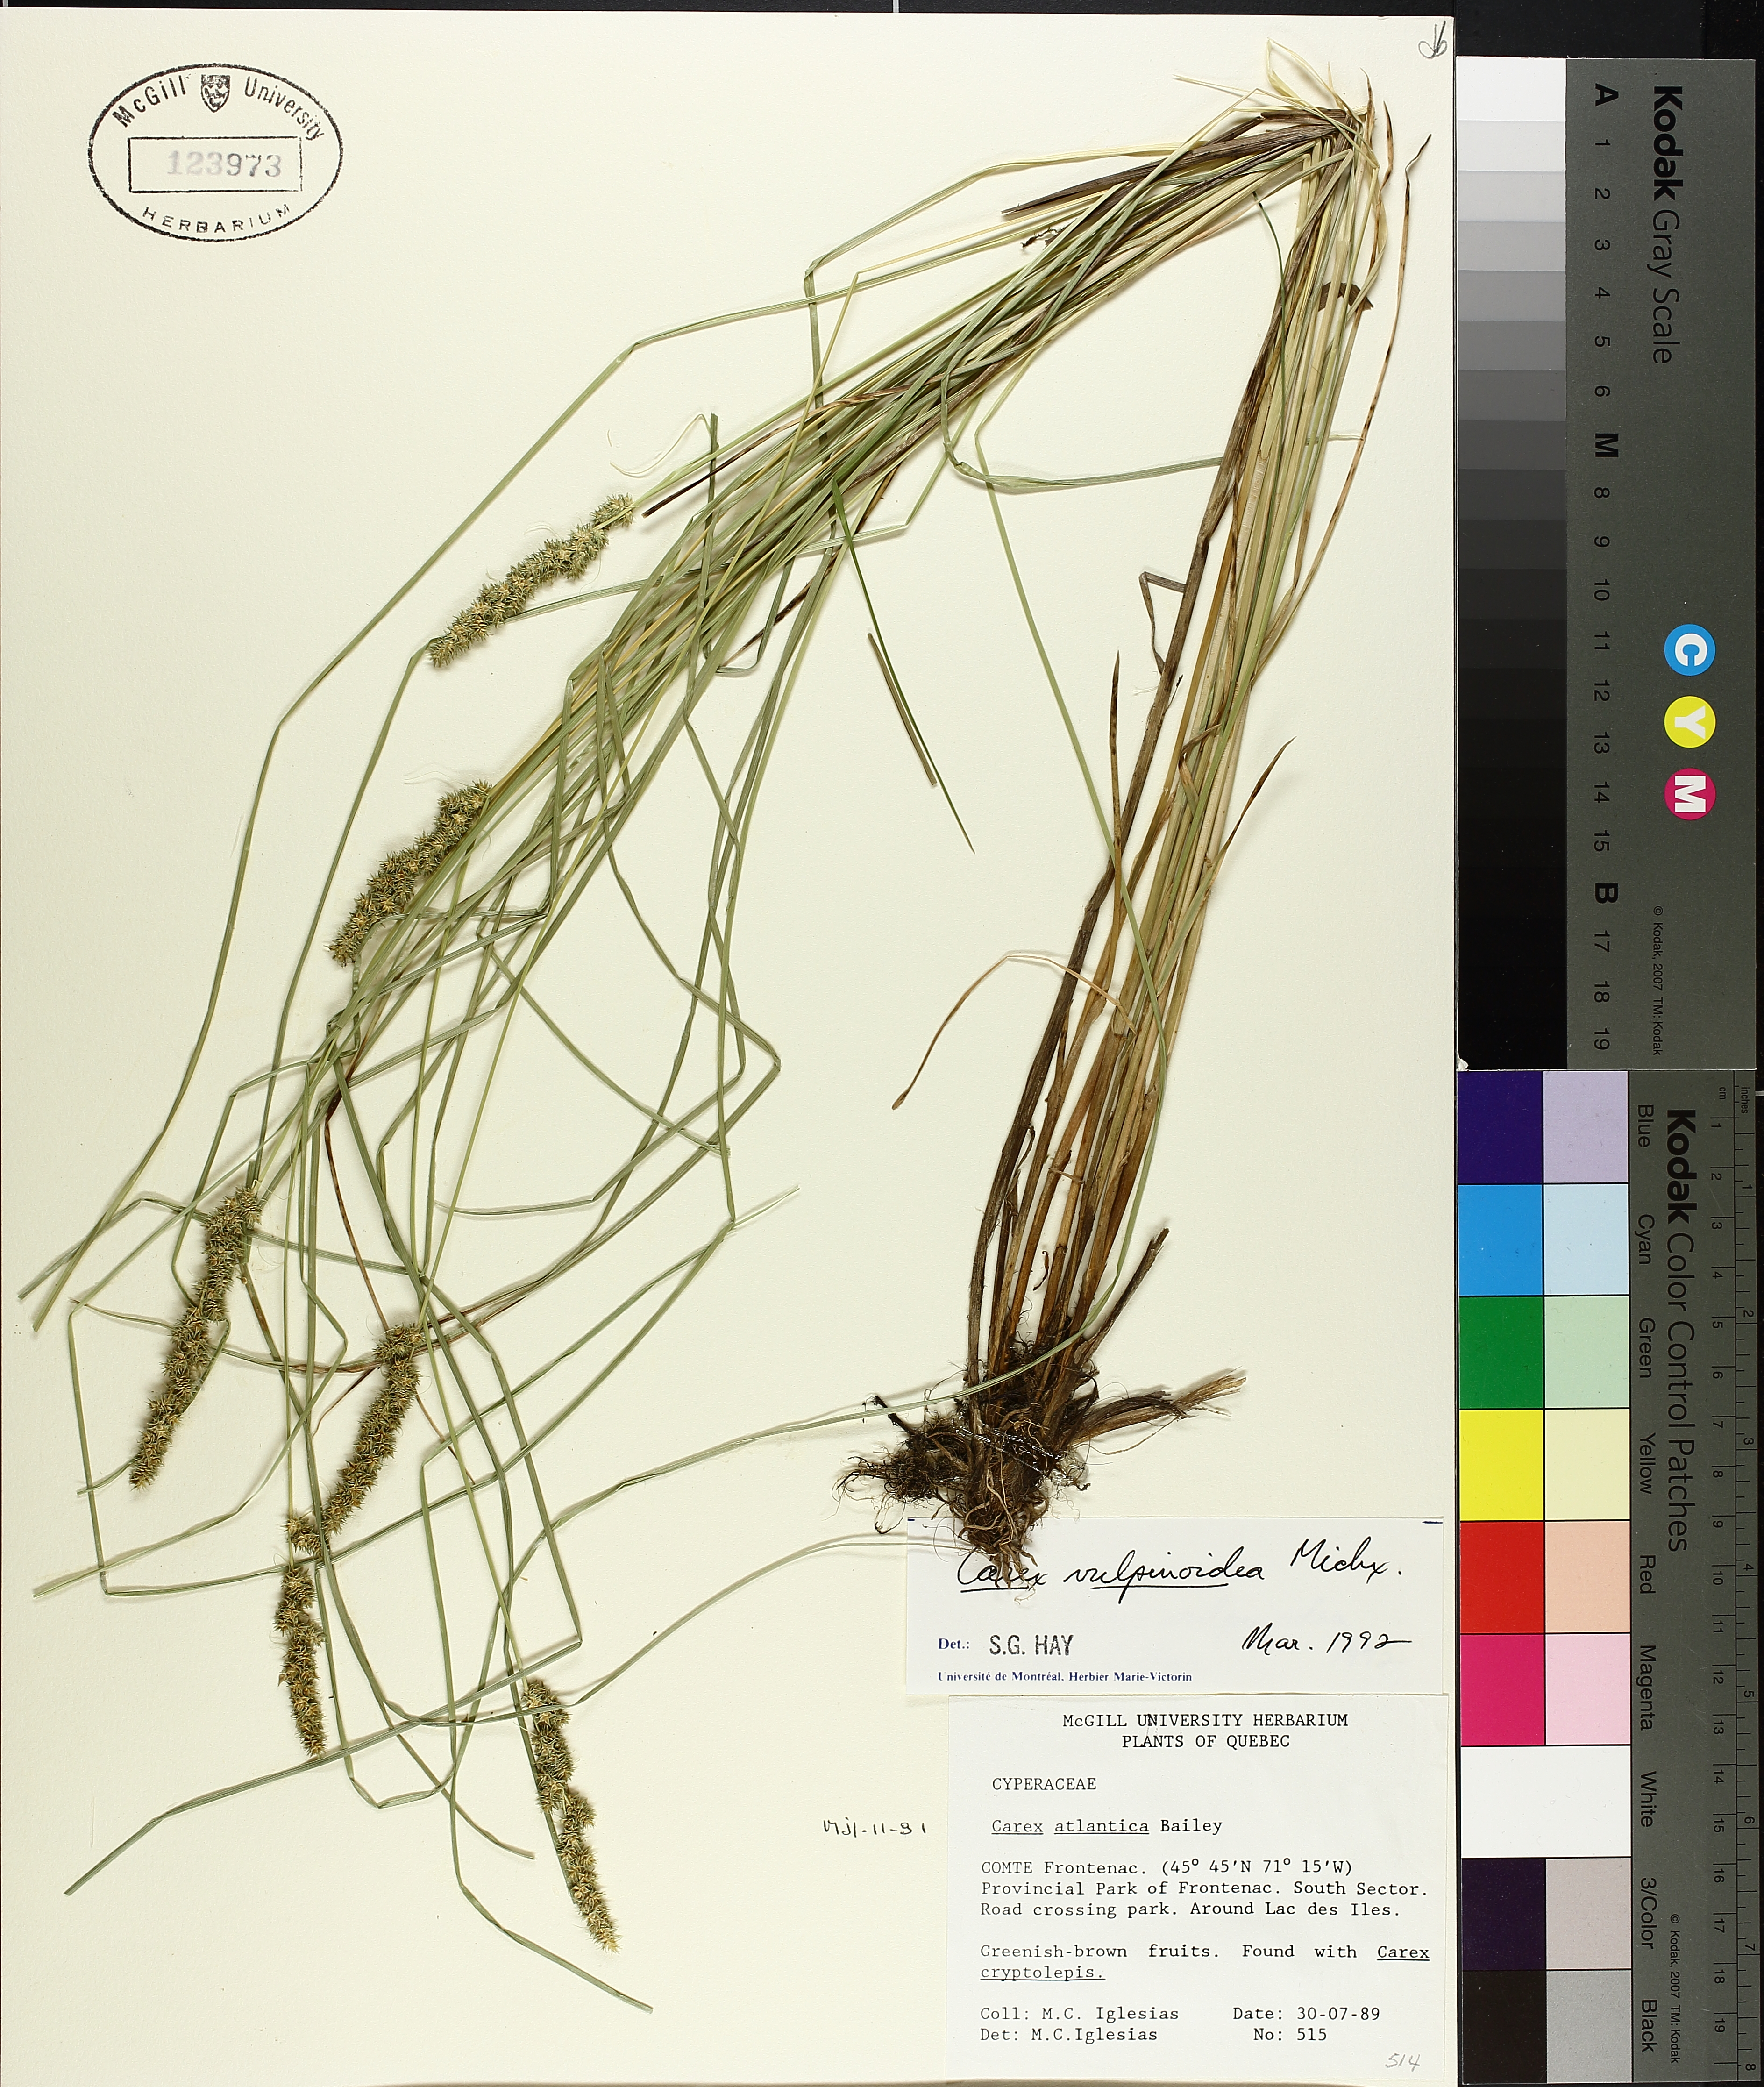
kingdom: Plantae
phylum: Tracheophyta
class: Liliopsida
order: Poales
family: Cyperaceae
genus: Carex
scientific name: Carex vulpinoidea
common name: American fox-sedge
